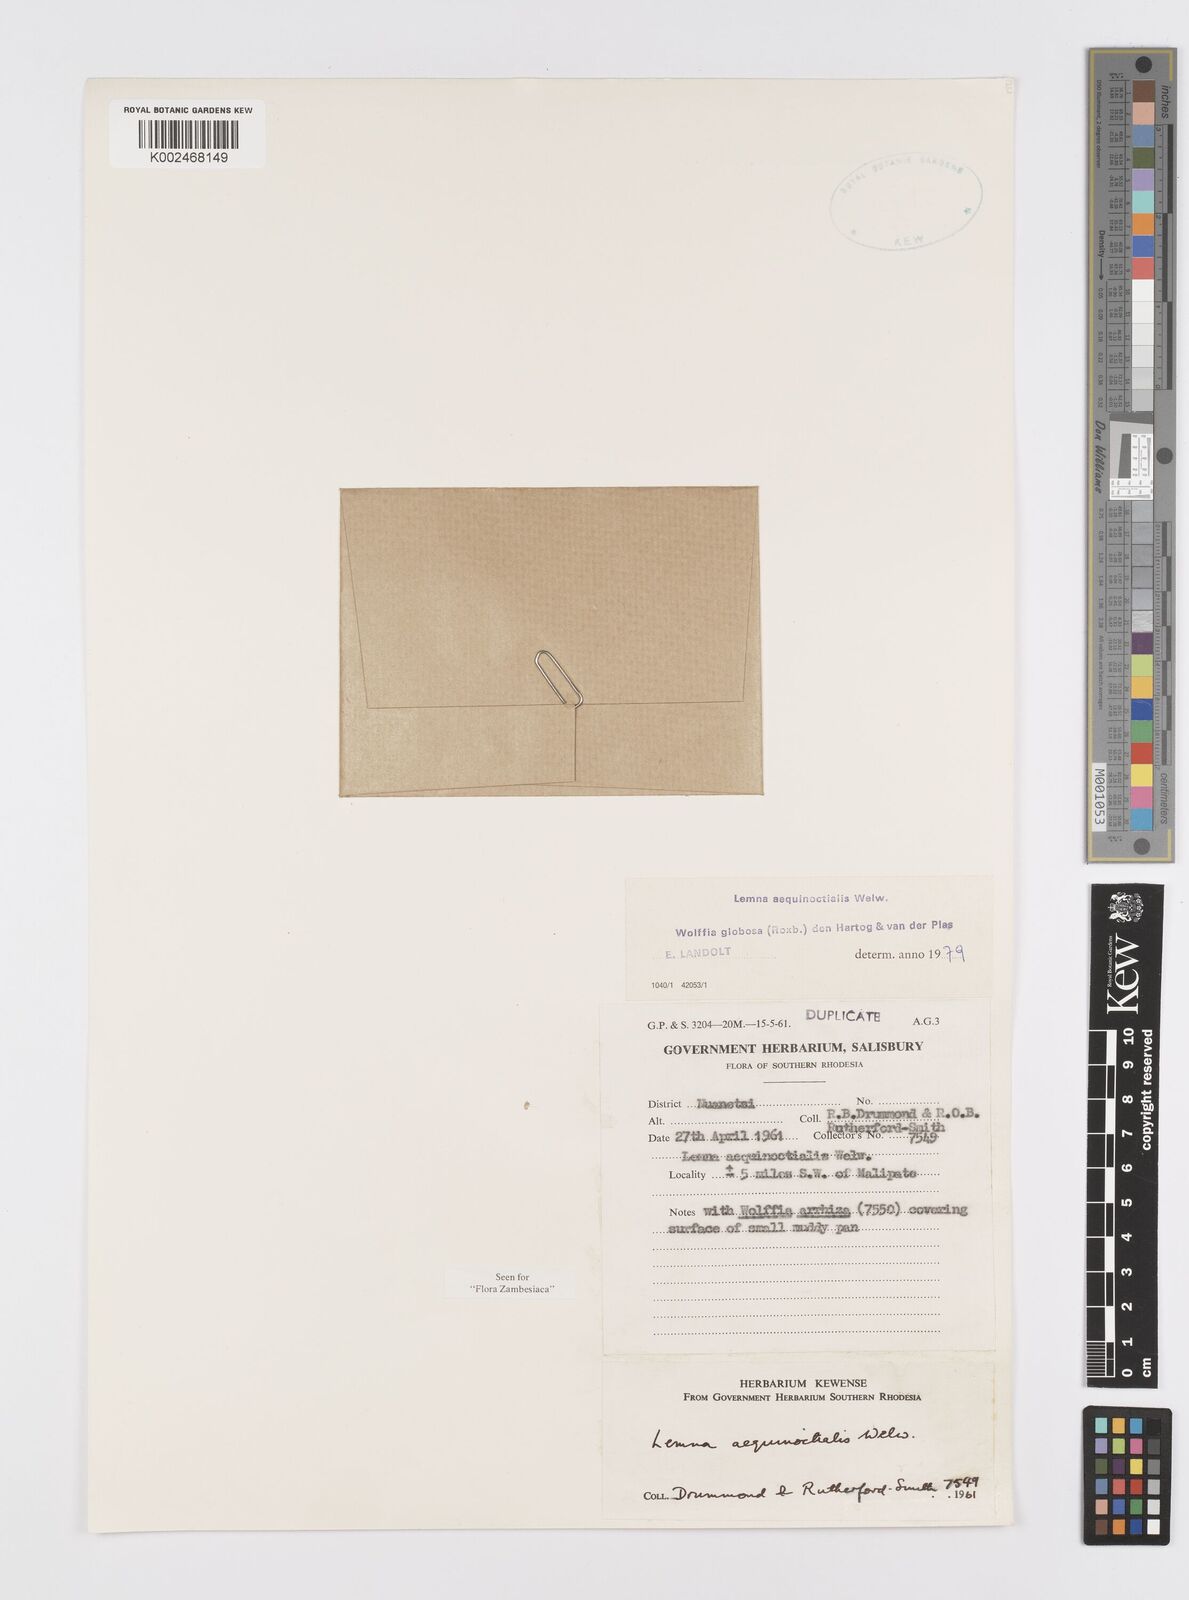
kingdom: Plantae
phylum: Tracheophyta
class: Liliopsida
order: Alismatales
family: Araceae
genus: Lemna
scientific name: Lemna aequinoctialis
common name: Duckweed
